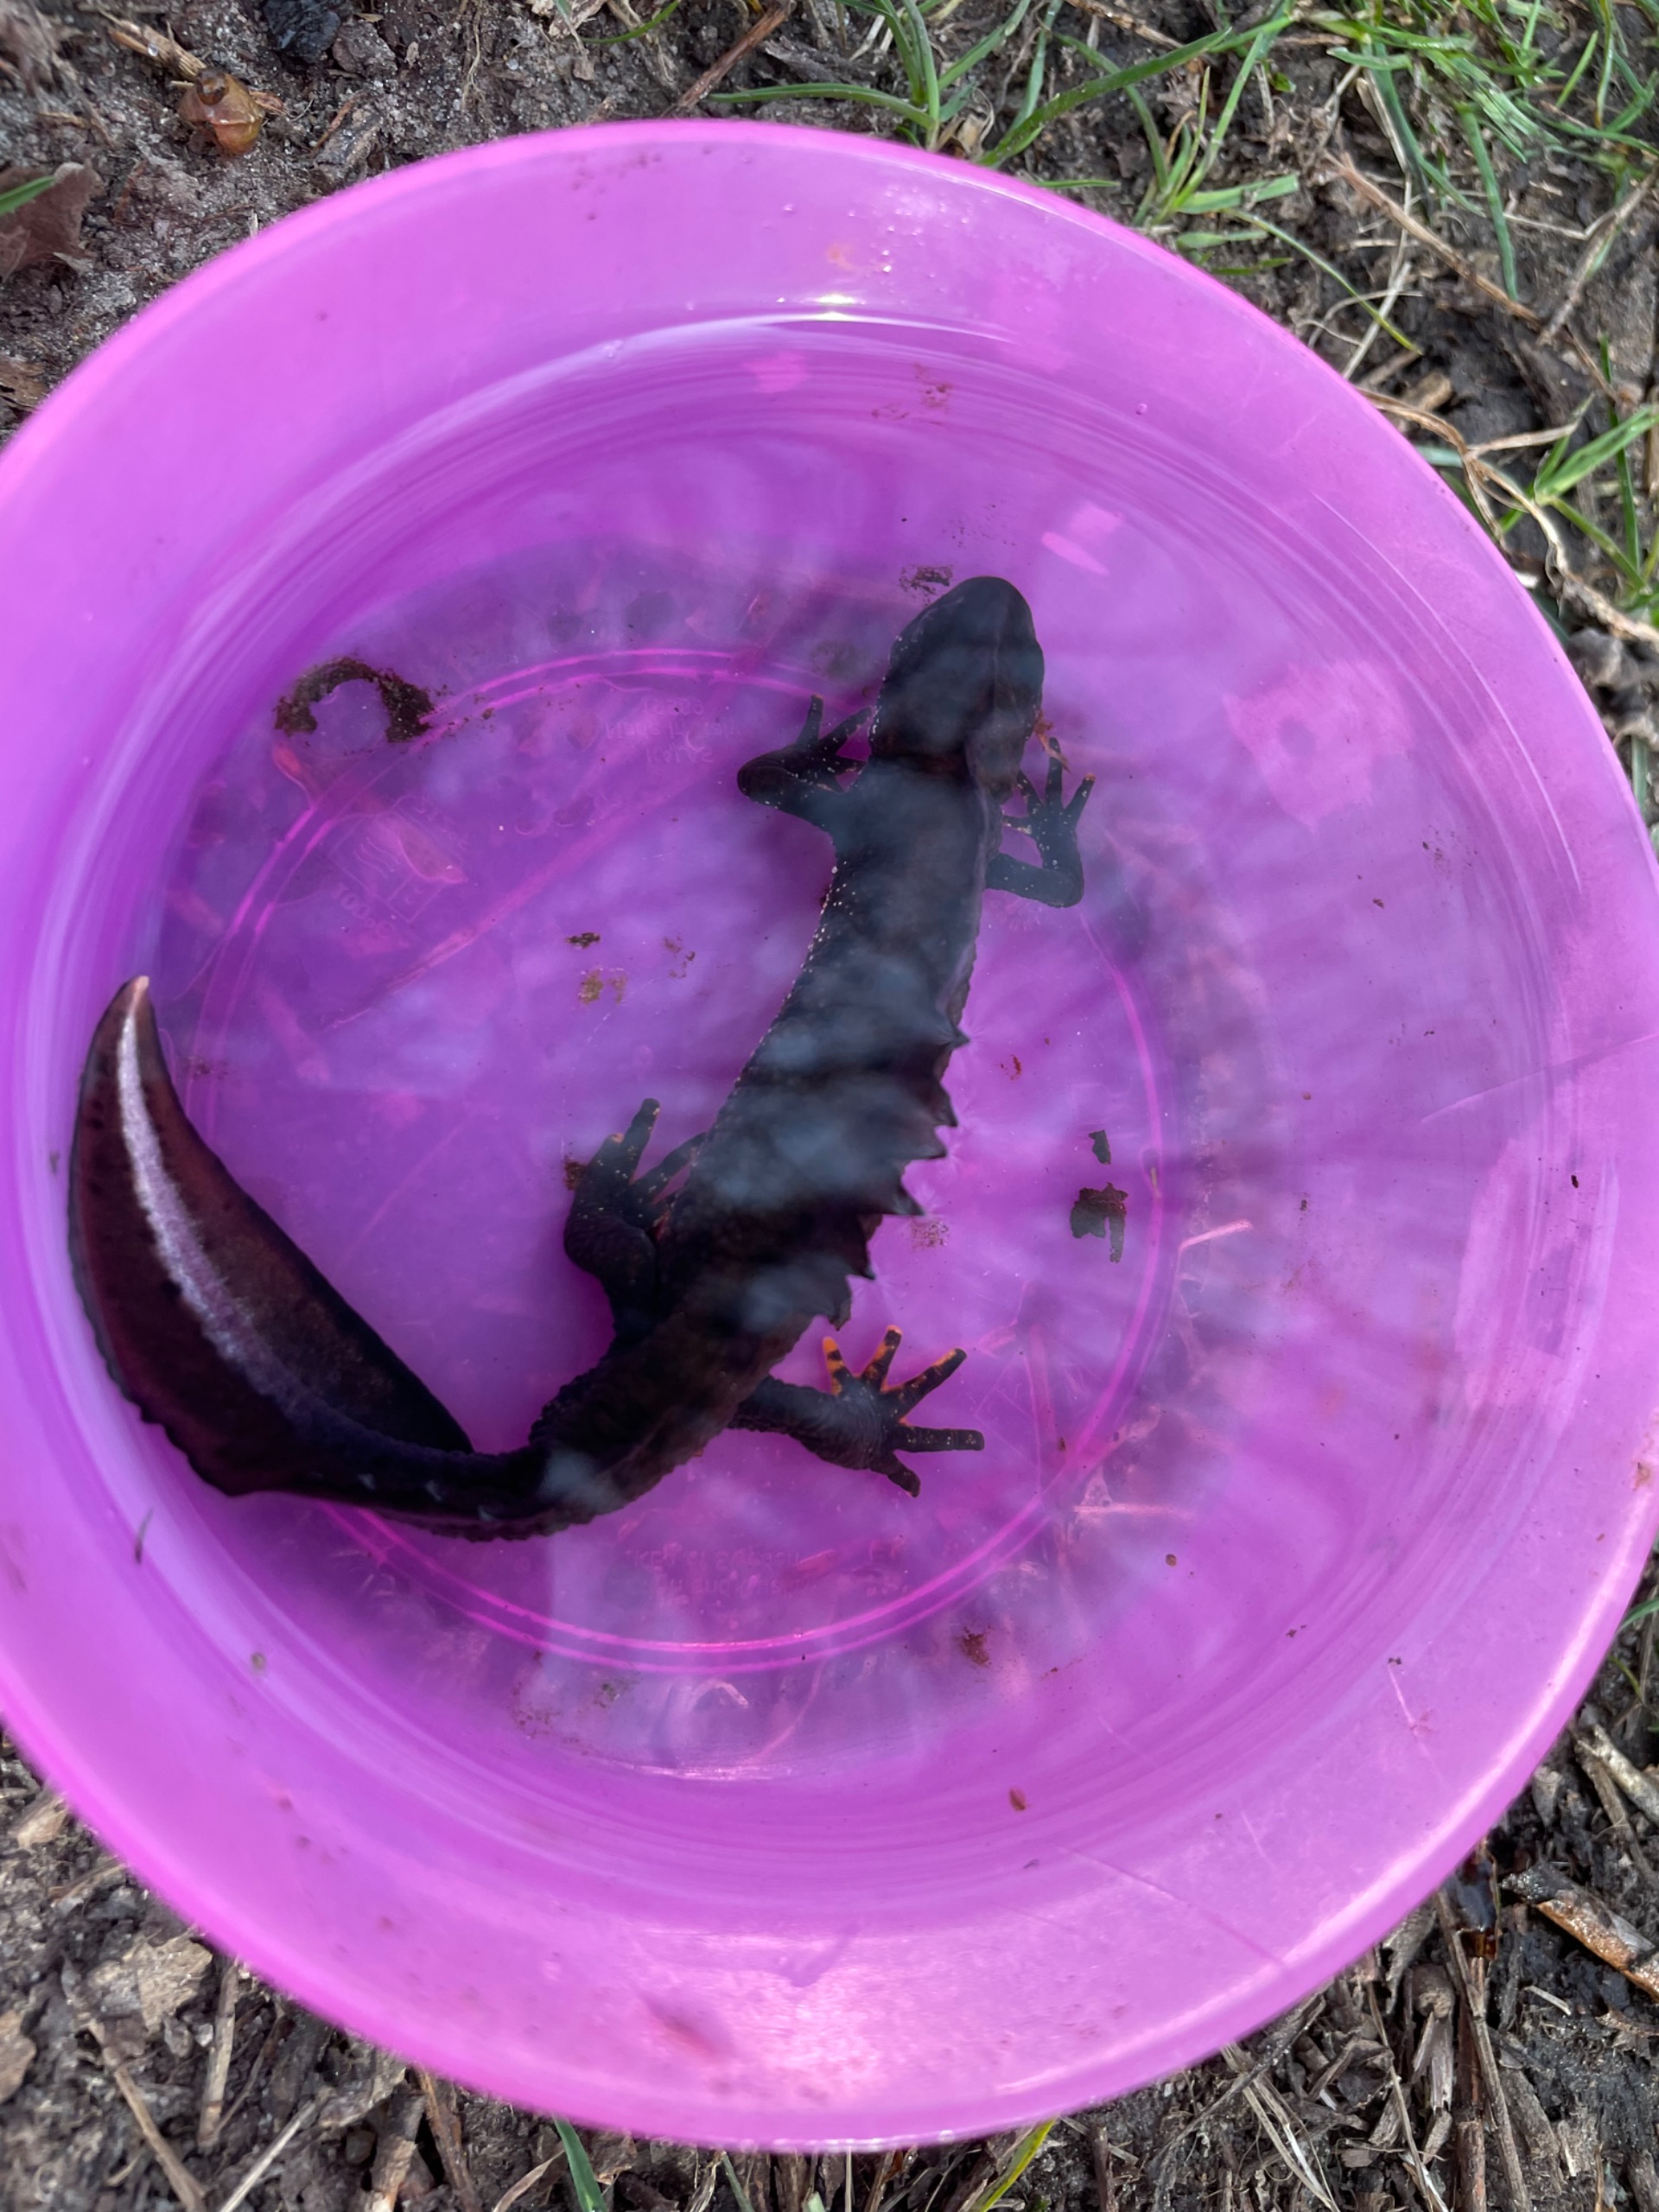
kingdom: Animalia
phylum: Chordata
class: Amphibia
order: Caudata
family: Salamandridae
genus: Triturus
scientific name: Triturus cristatus
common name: Stor vandsalamander
